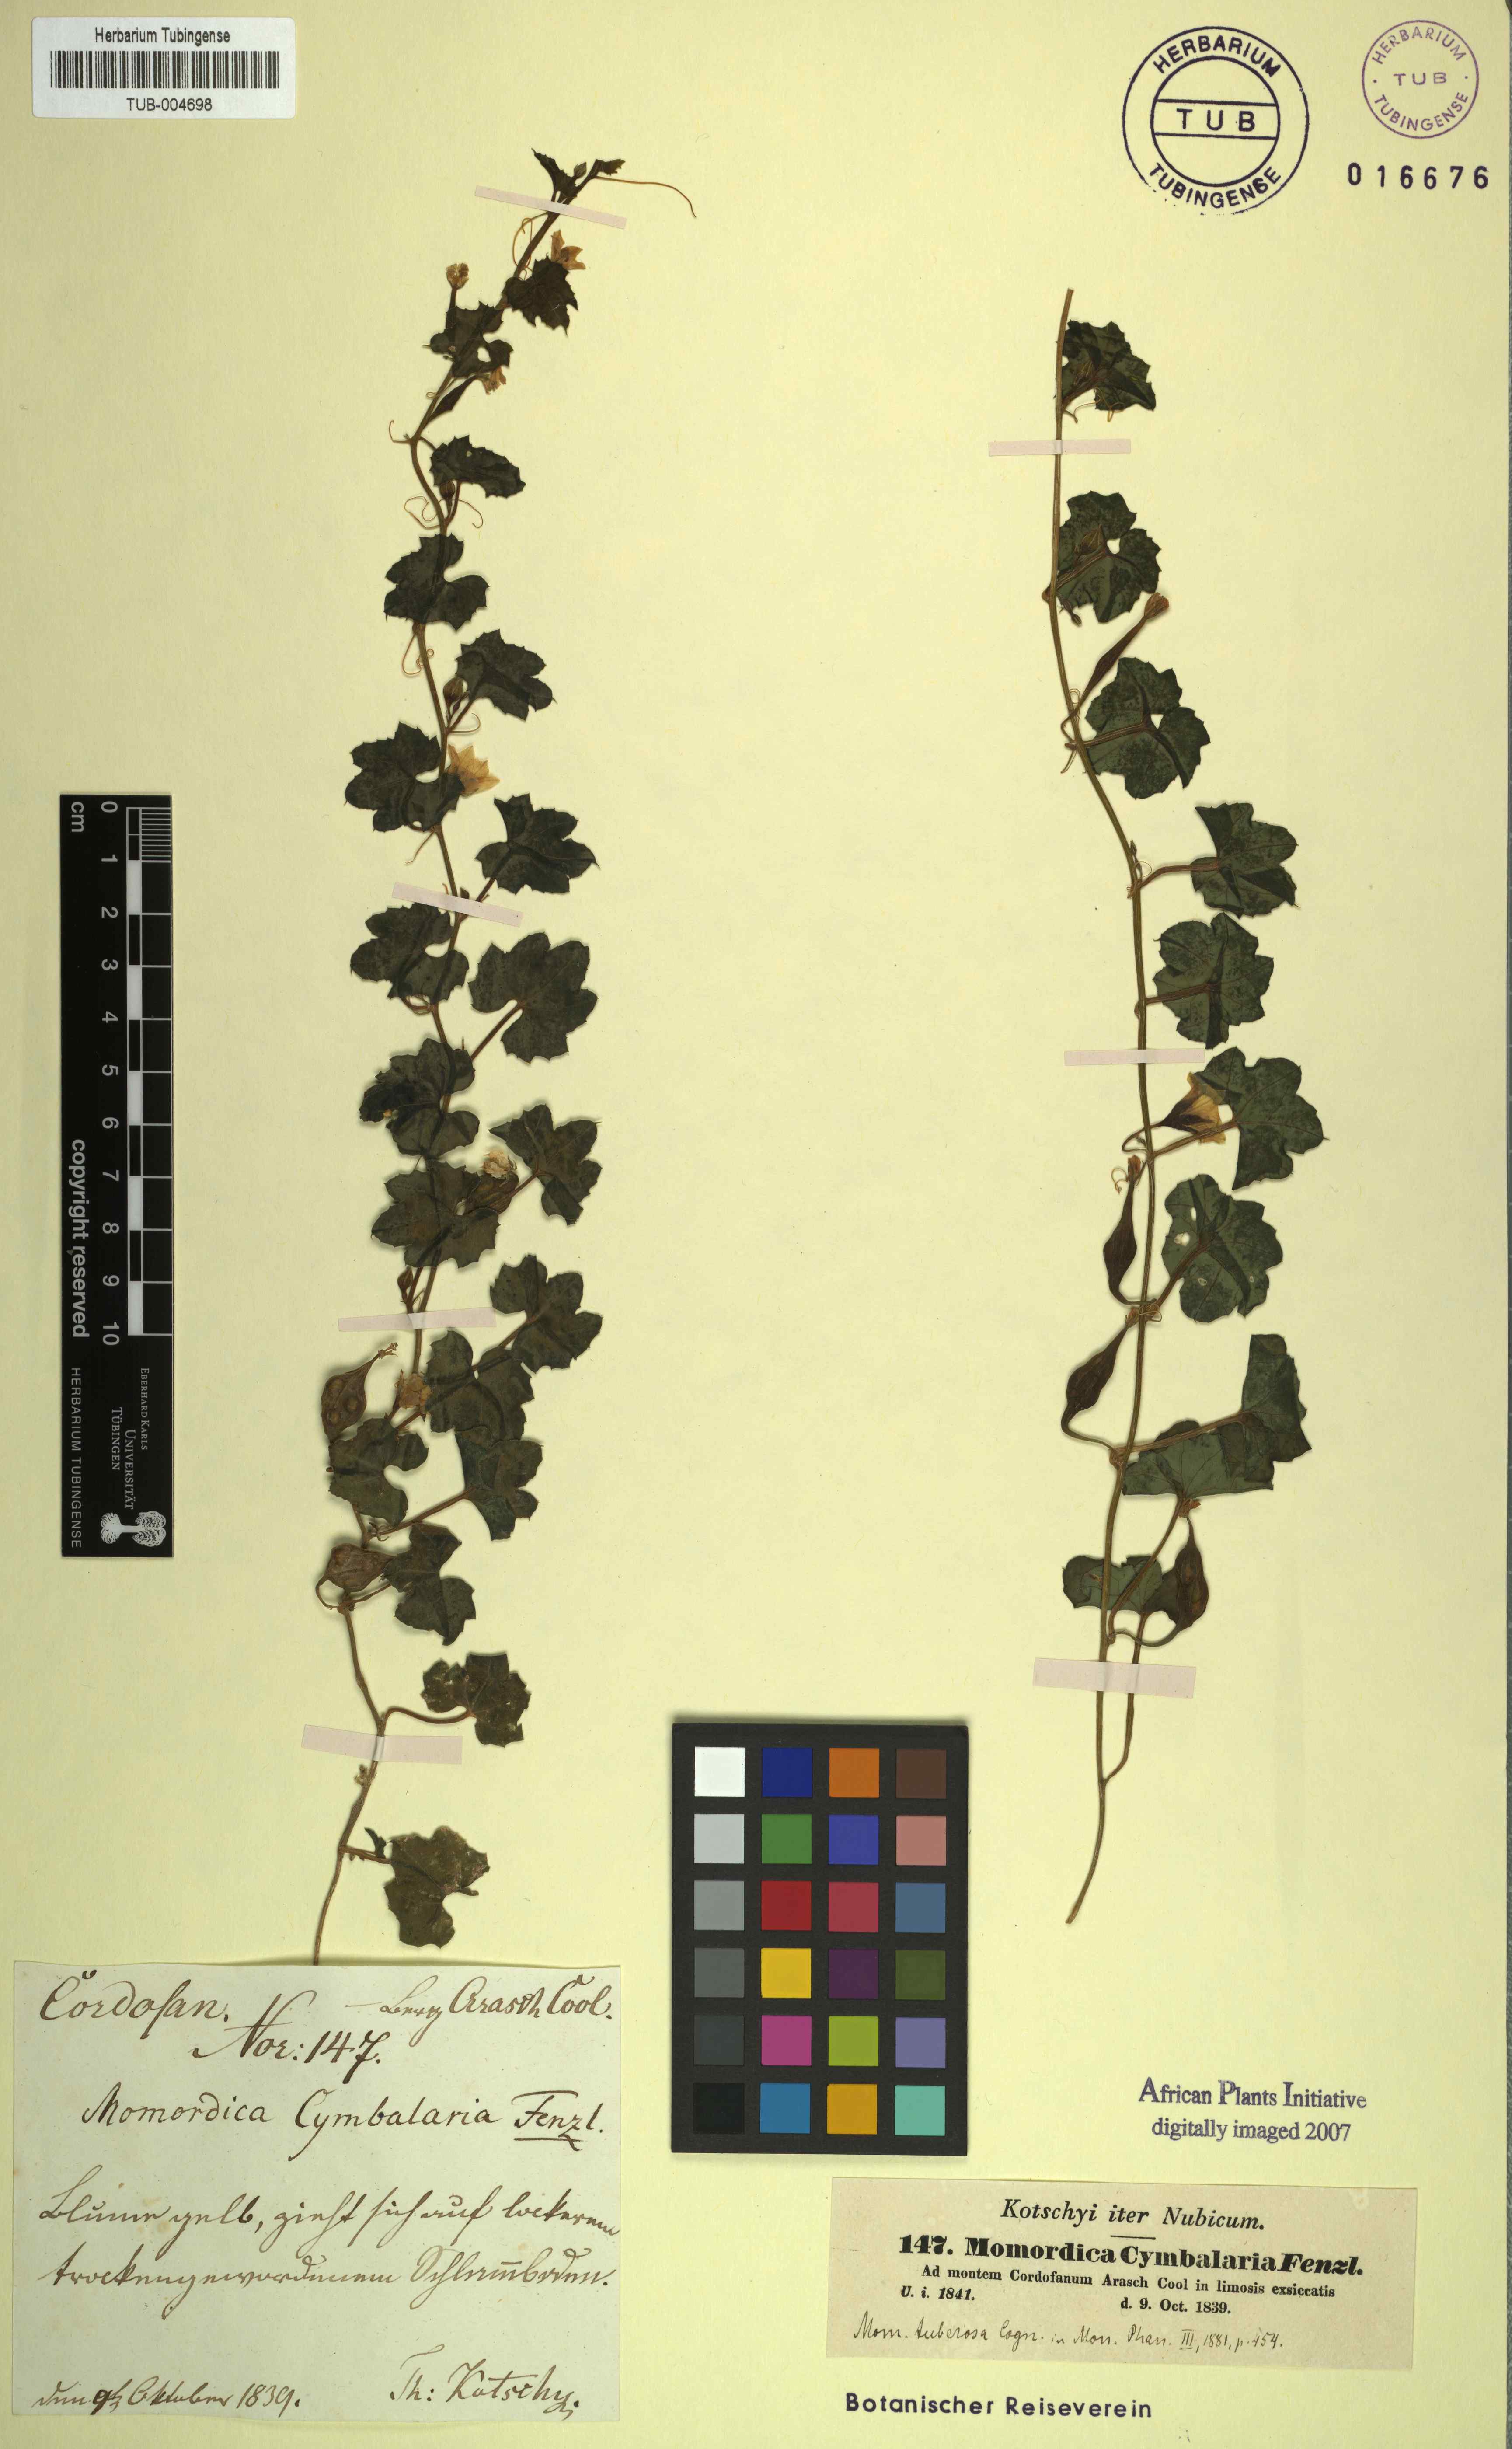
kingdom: Plantae
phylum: Tracheophyta
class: Magnoliopsida
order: Cucurbitales
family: Cucurbitaceae
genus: Momordica
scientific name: Momordica cymbalaria
